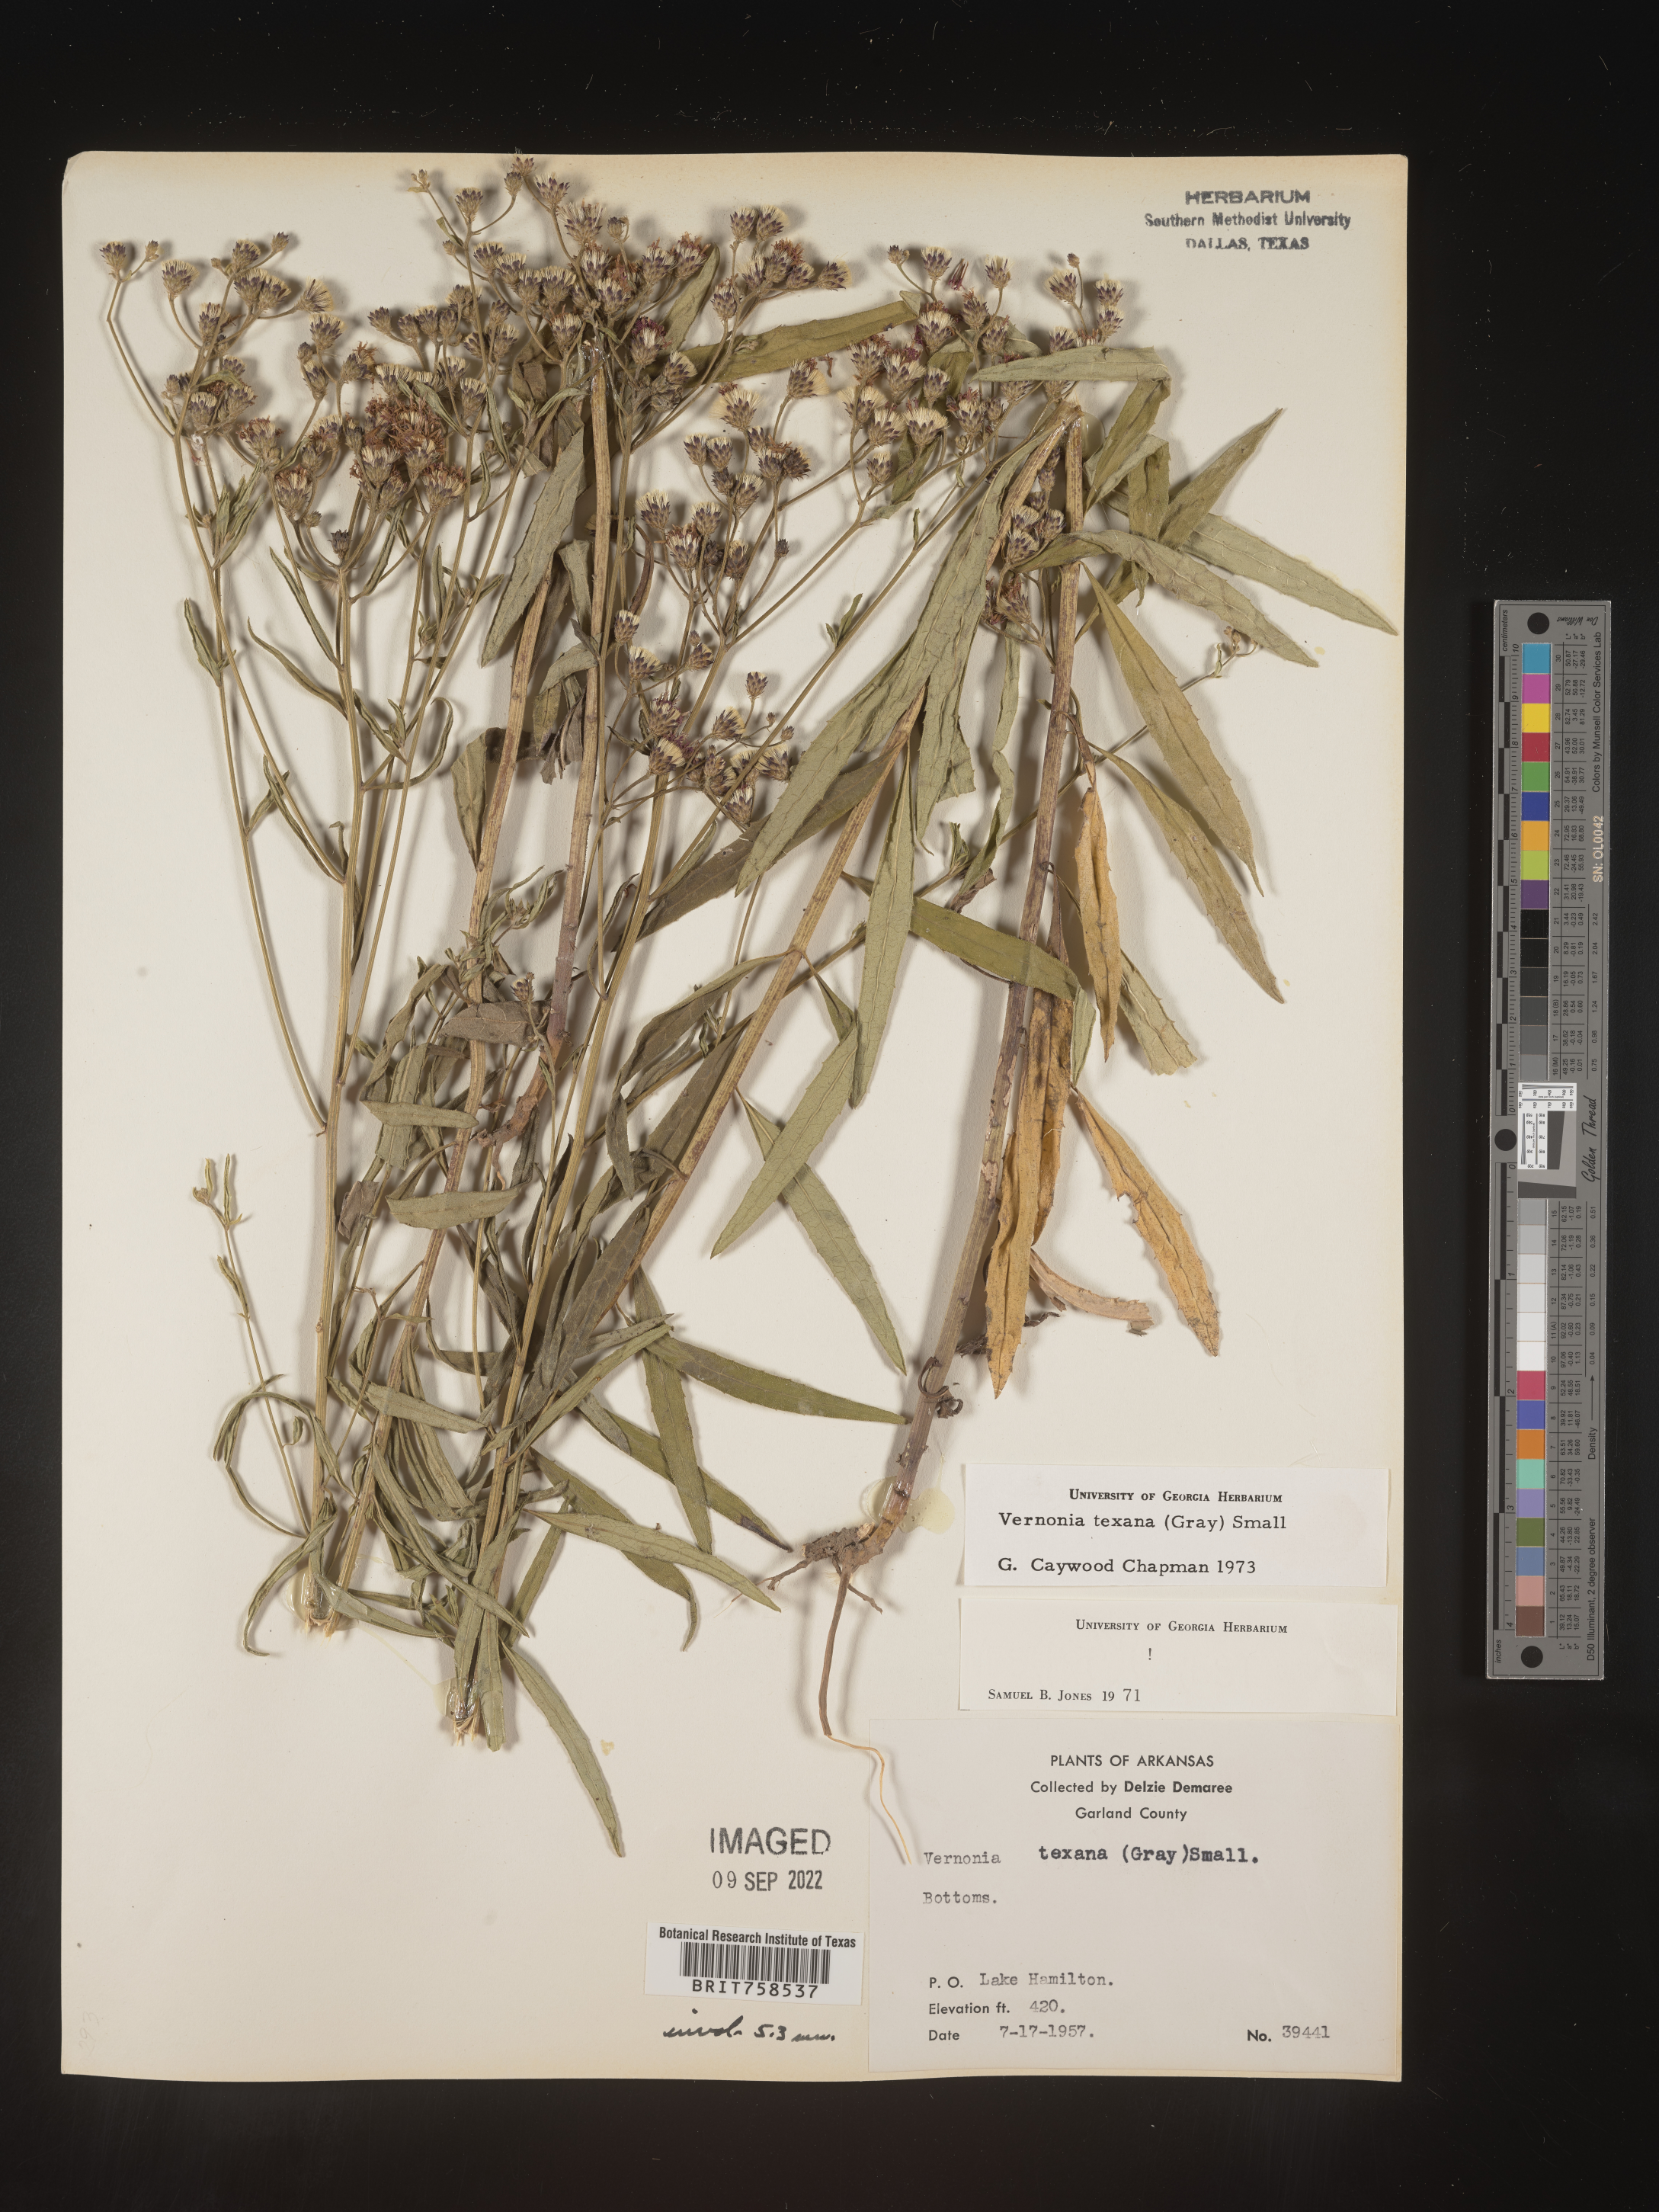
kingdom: Plantae
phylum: Tracheophyta
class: Magnoliopsida
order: Asterales
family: Asteraceae
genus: Vernonia
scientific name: Vernonia texana
